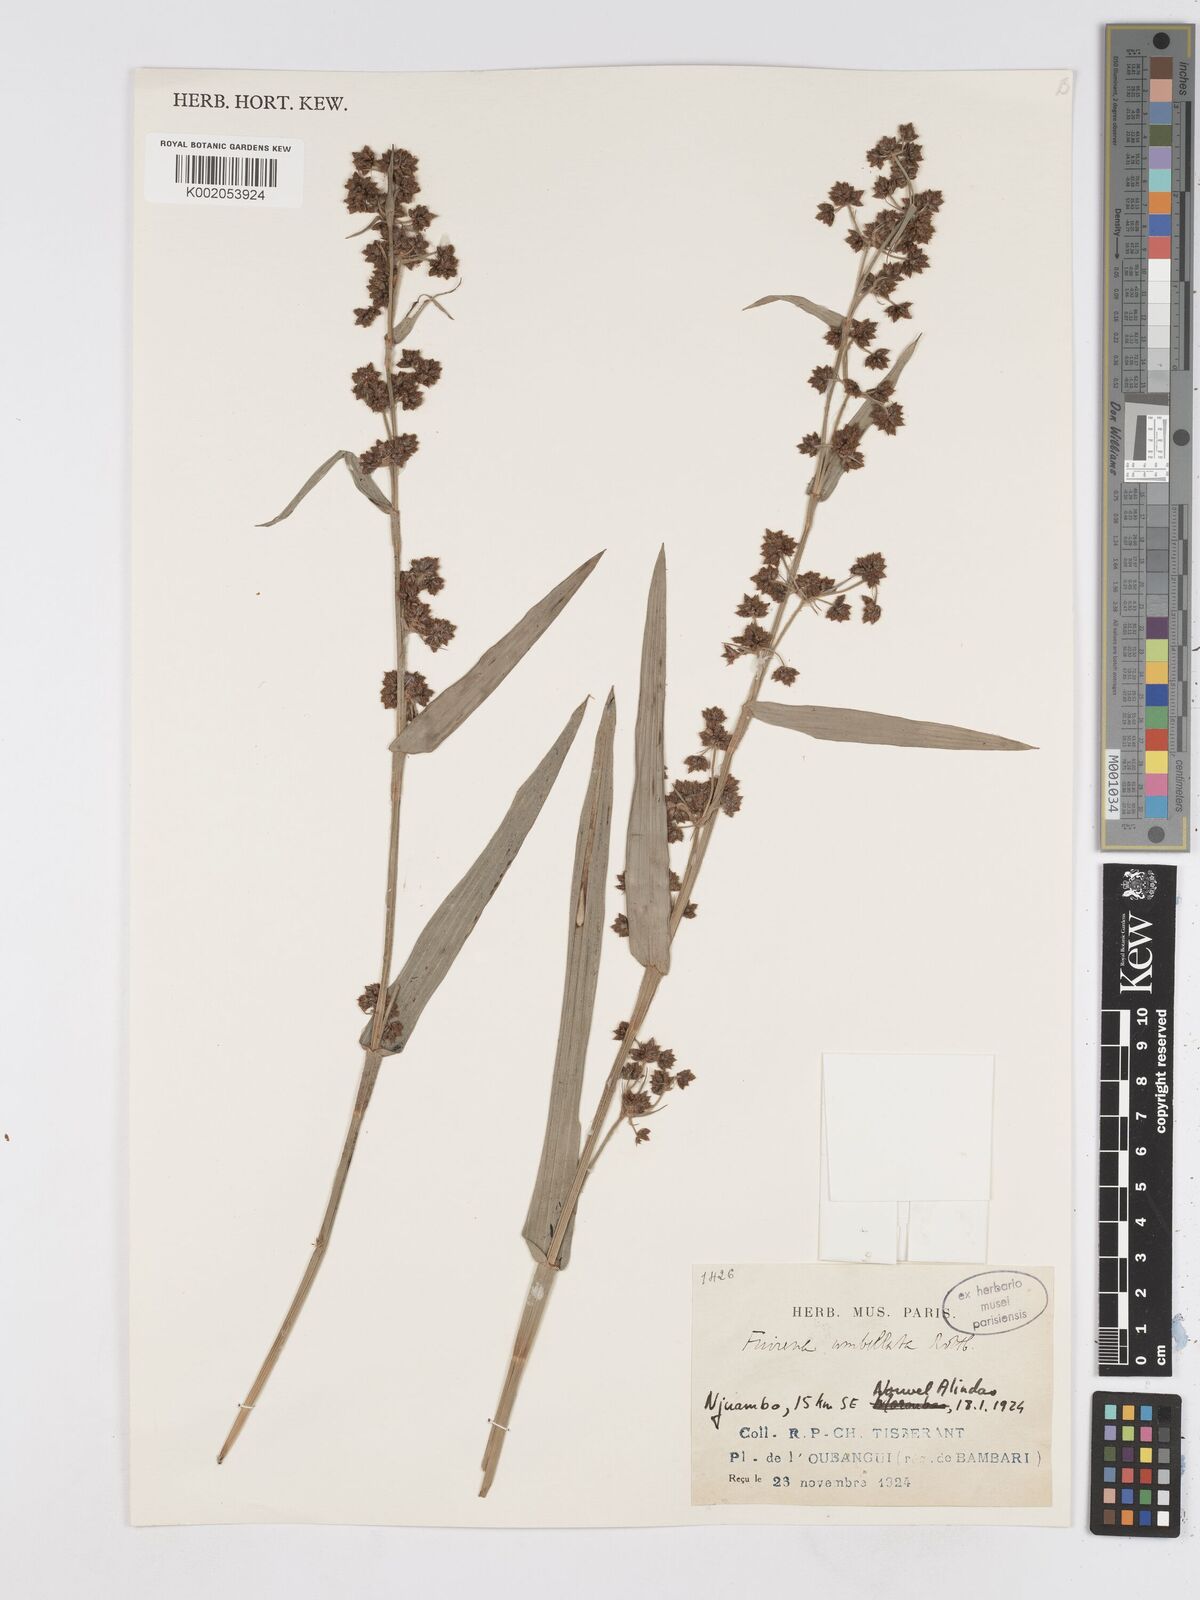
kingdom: Plantae
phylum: Tracheophyta
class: Liliopsida
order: Poales
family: Cyperaceae
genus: Fuirena
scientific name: Fuirena umbellata
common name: Yefen
